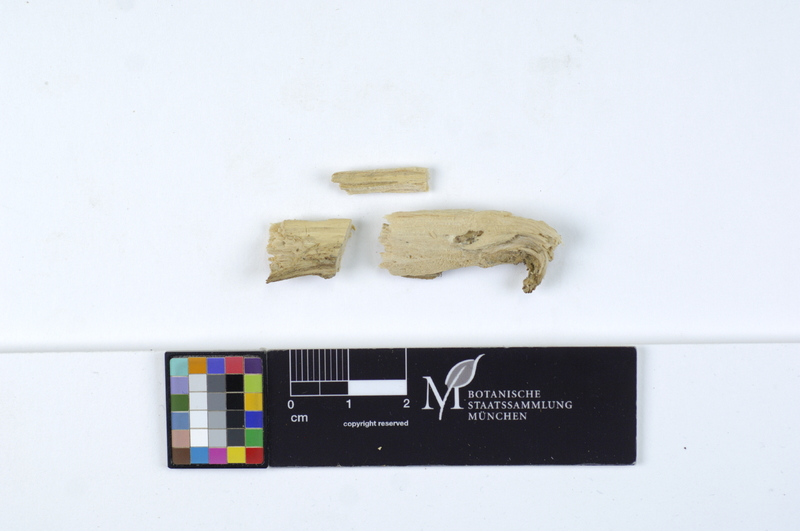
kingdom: Plantae
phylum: Tracheophyta
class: Magnoliopsida
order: Malpighiales
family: Salicaceae
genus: Salix
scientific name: Salix alba
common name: White willow
